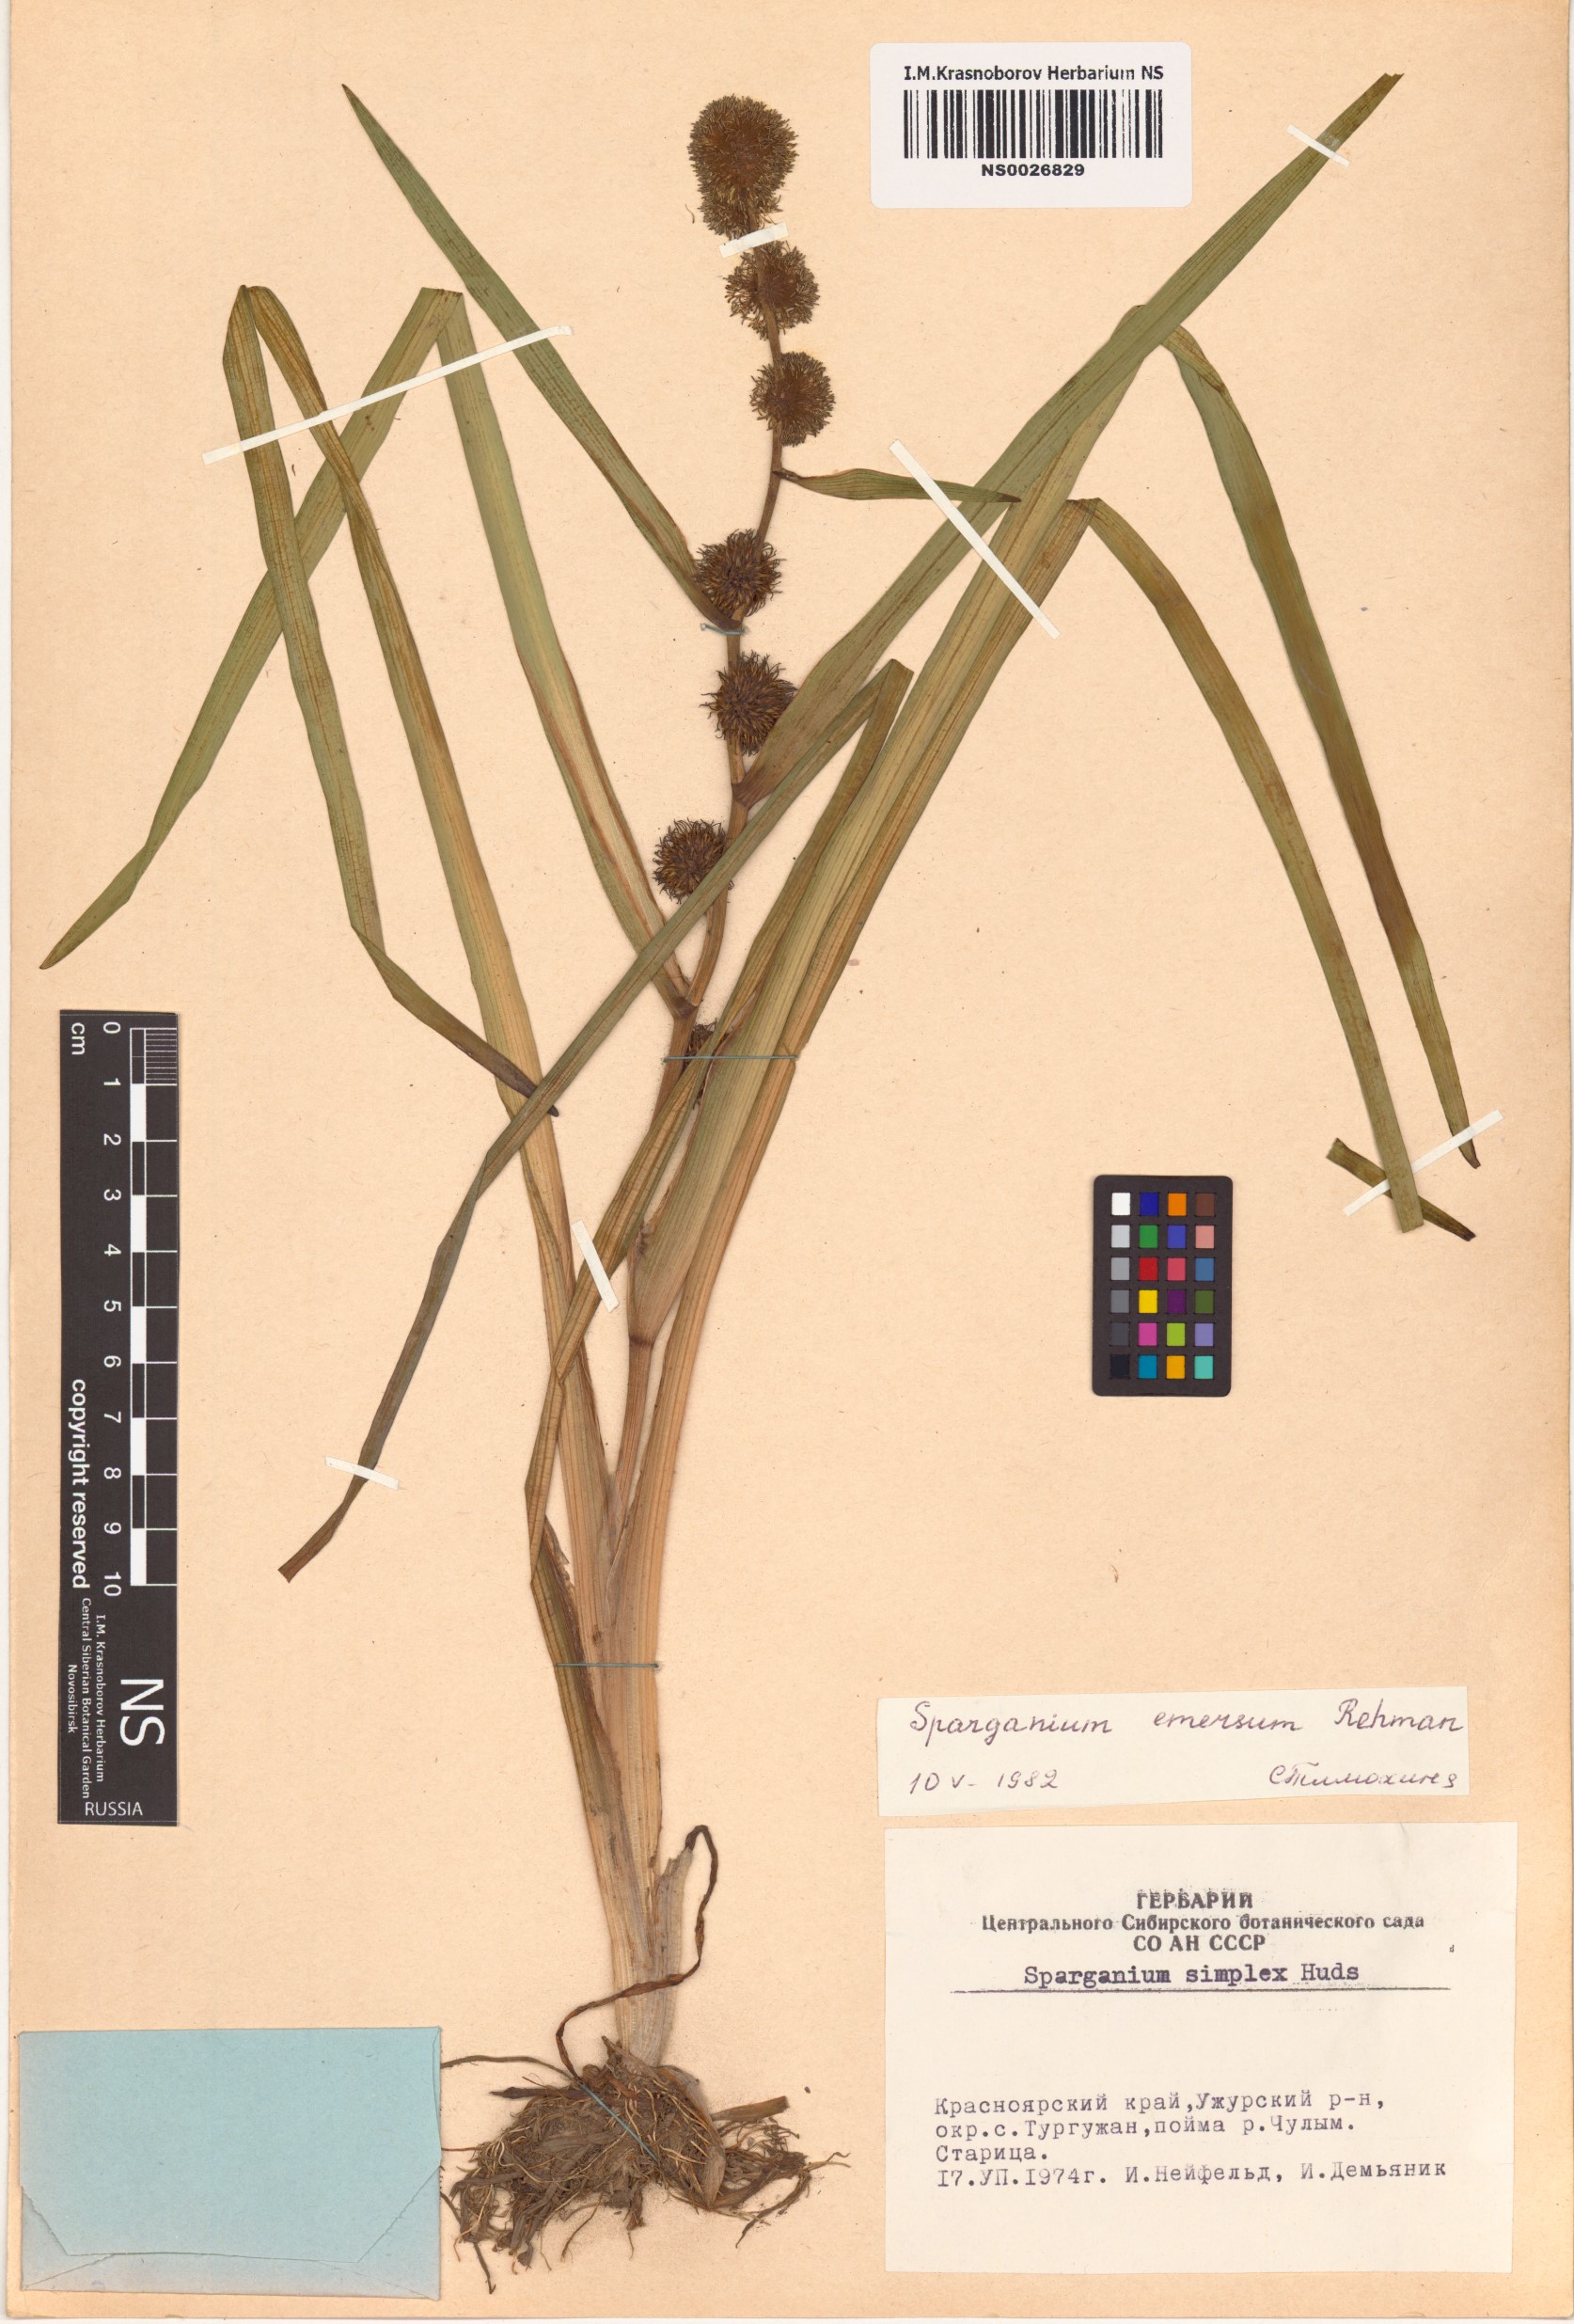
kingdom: Plantae
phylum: Tracheophyta
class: Liliopsida
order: Poales
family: Typhaceae
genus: Sparganium
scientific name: Sparganium emersum
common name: Unbranched bur-reed
